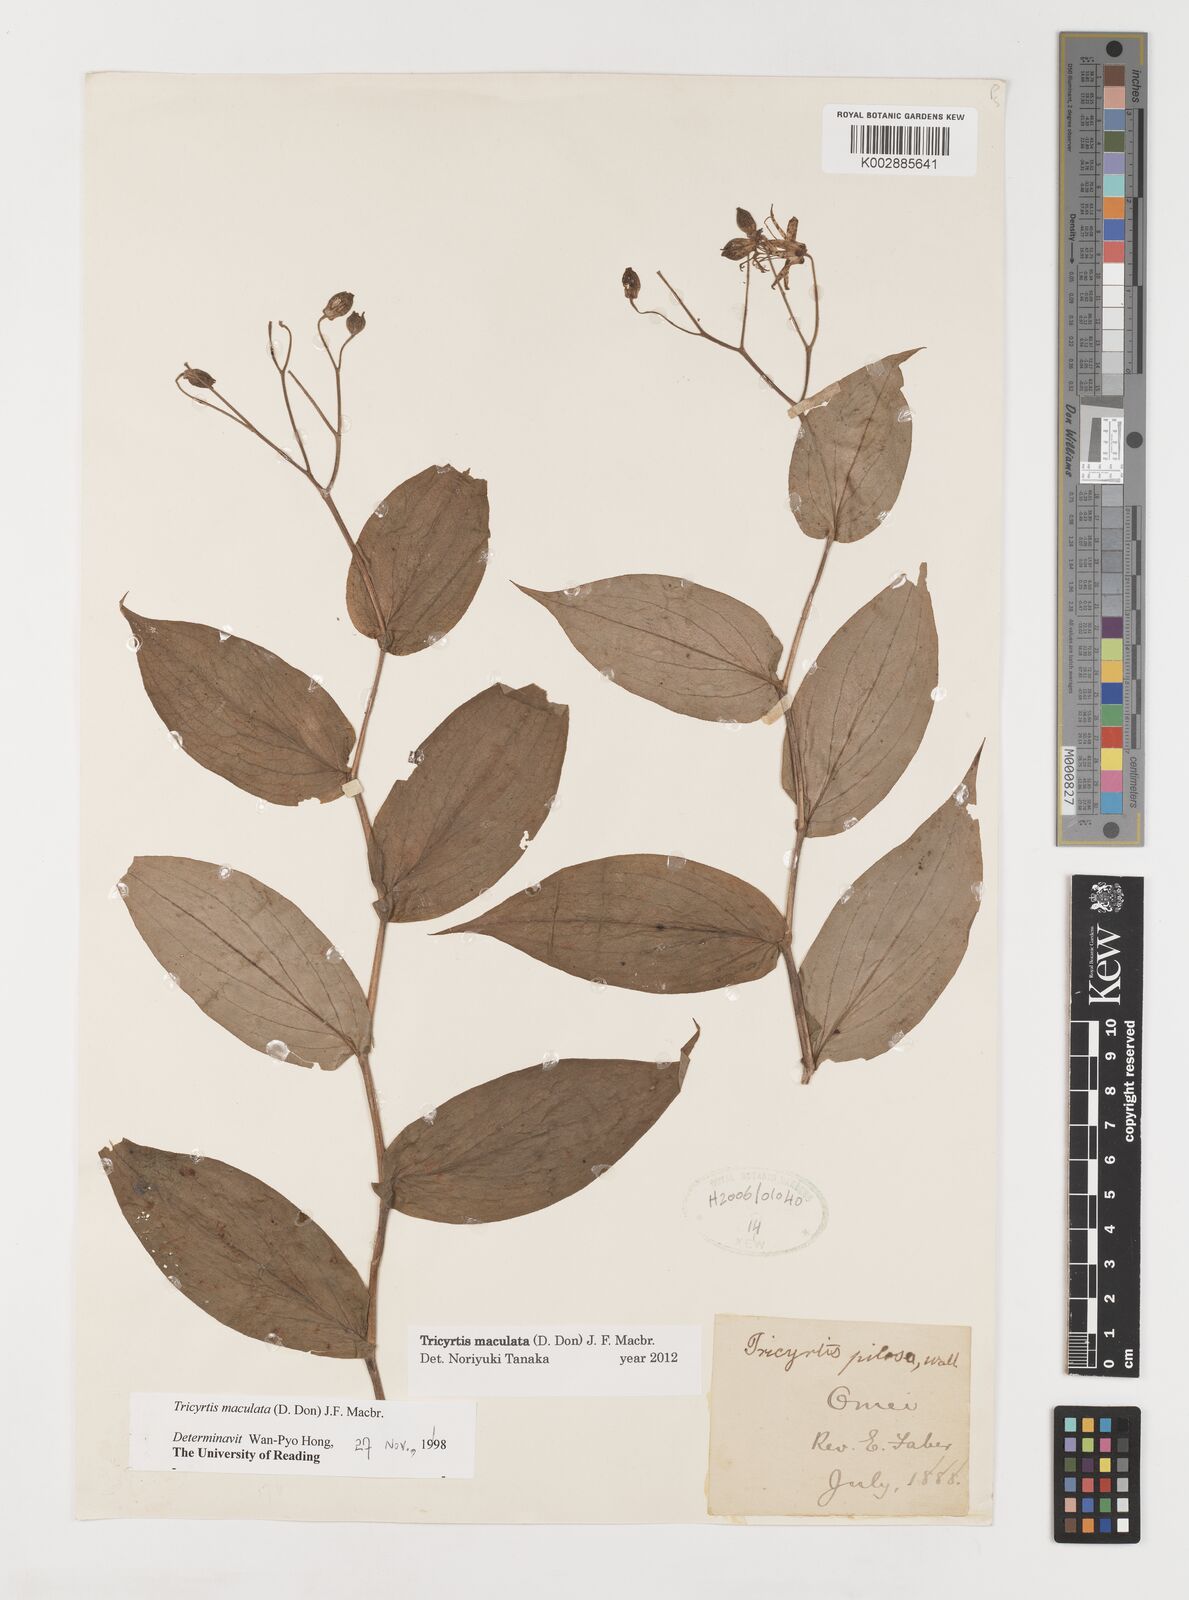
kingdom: Plantae
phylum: Tracheophyta
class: Liliopsida
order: Liliales
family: Liliaceae
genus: Tricyrtis
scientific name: Tricyrtis maculata
